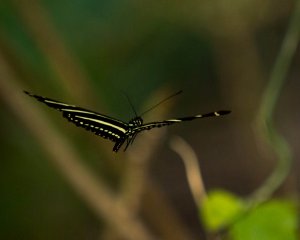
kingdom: Animalia
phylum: Arthropoda
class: Insecta
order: Lepidoptera
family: Nymphalidae
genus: Heliconius
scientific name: Heliconius charithonia
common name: Zebra Longwing
